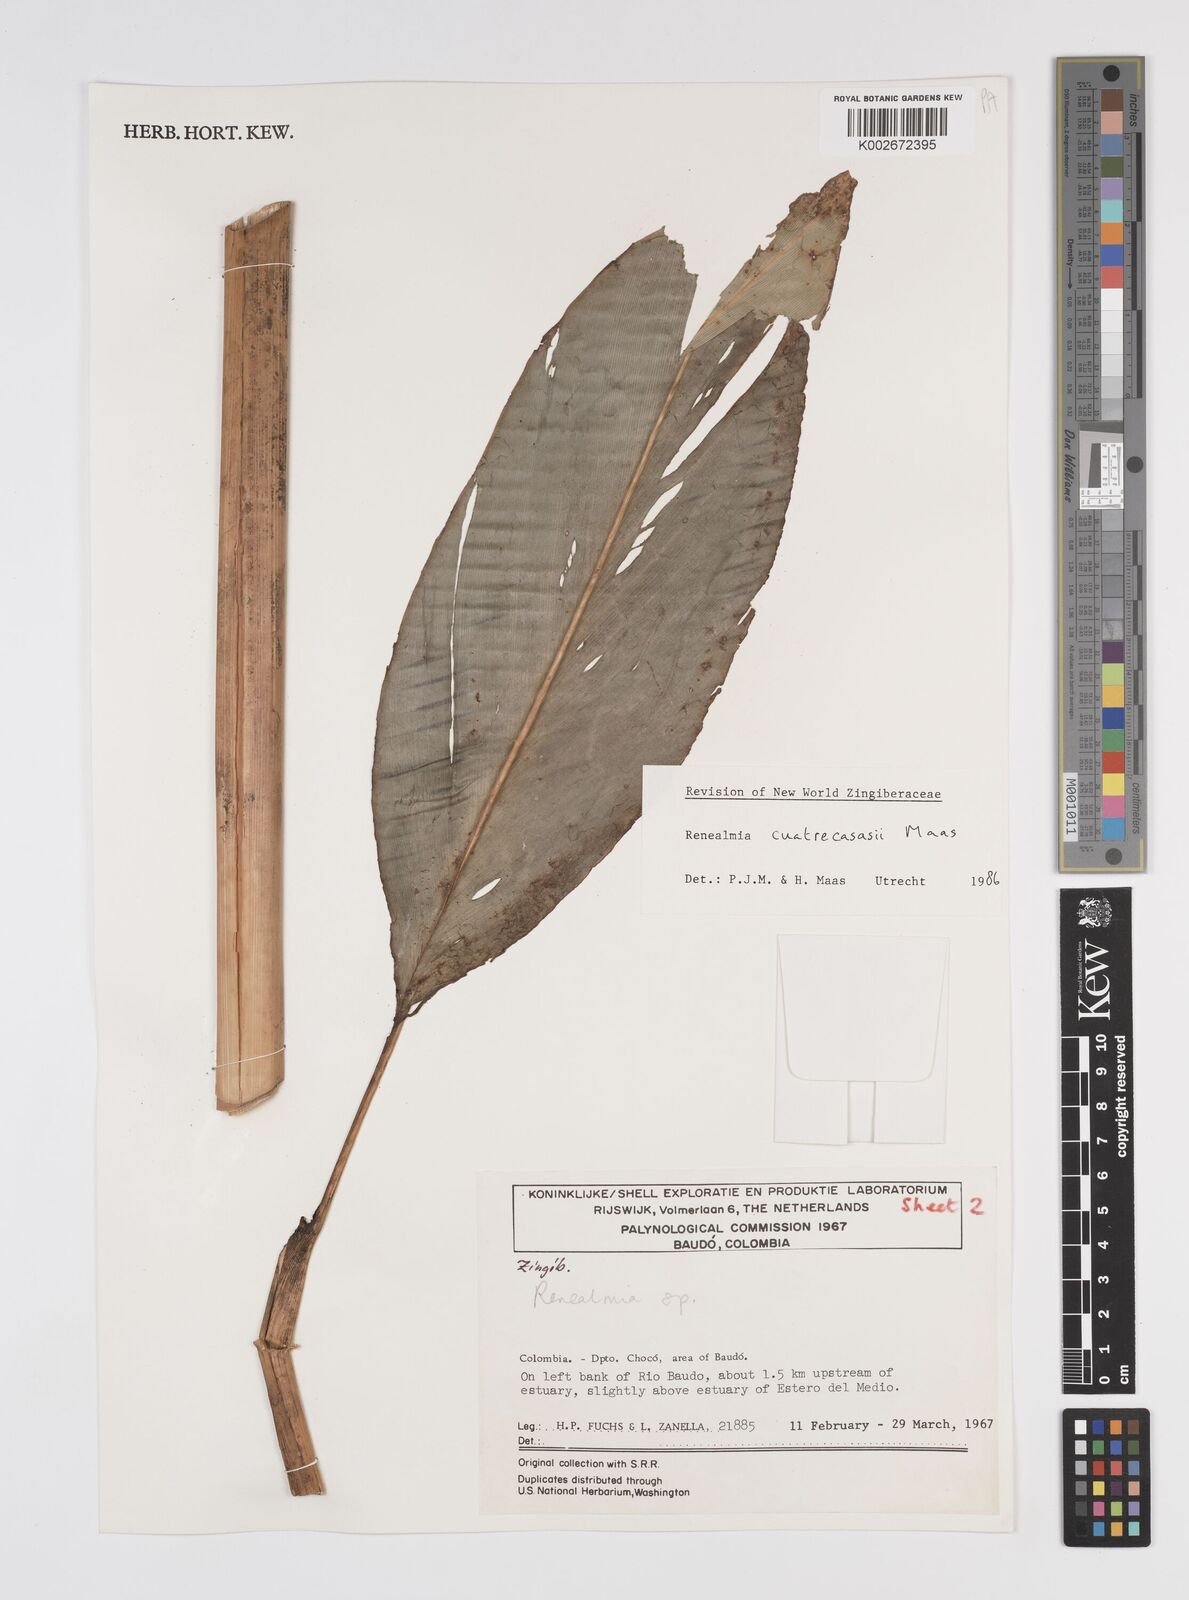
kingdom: Plantae
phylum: Tracheophyta
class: Liliopsida
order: Zingiberales
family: Zingiberaceae
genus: Renealmia
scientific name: Renealmia cuatrecasasii
